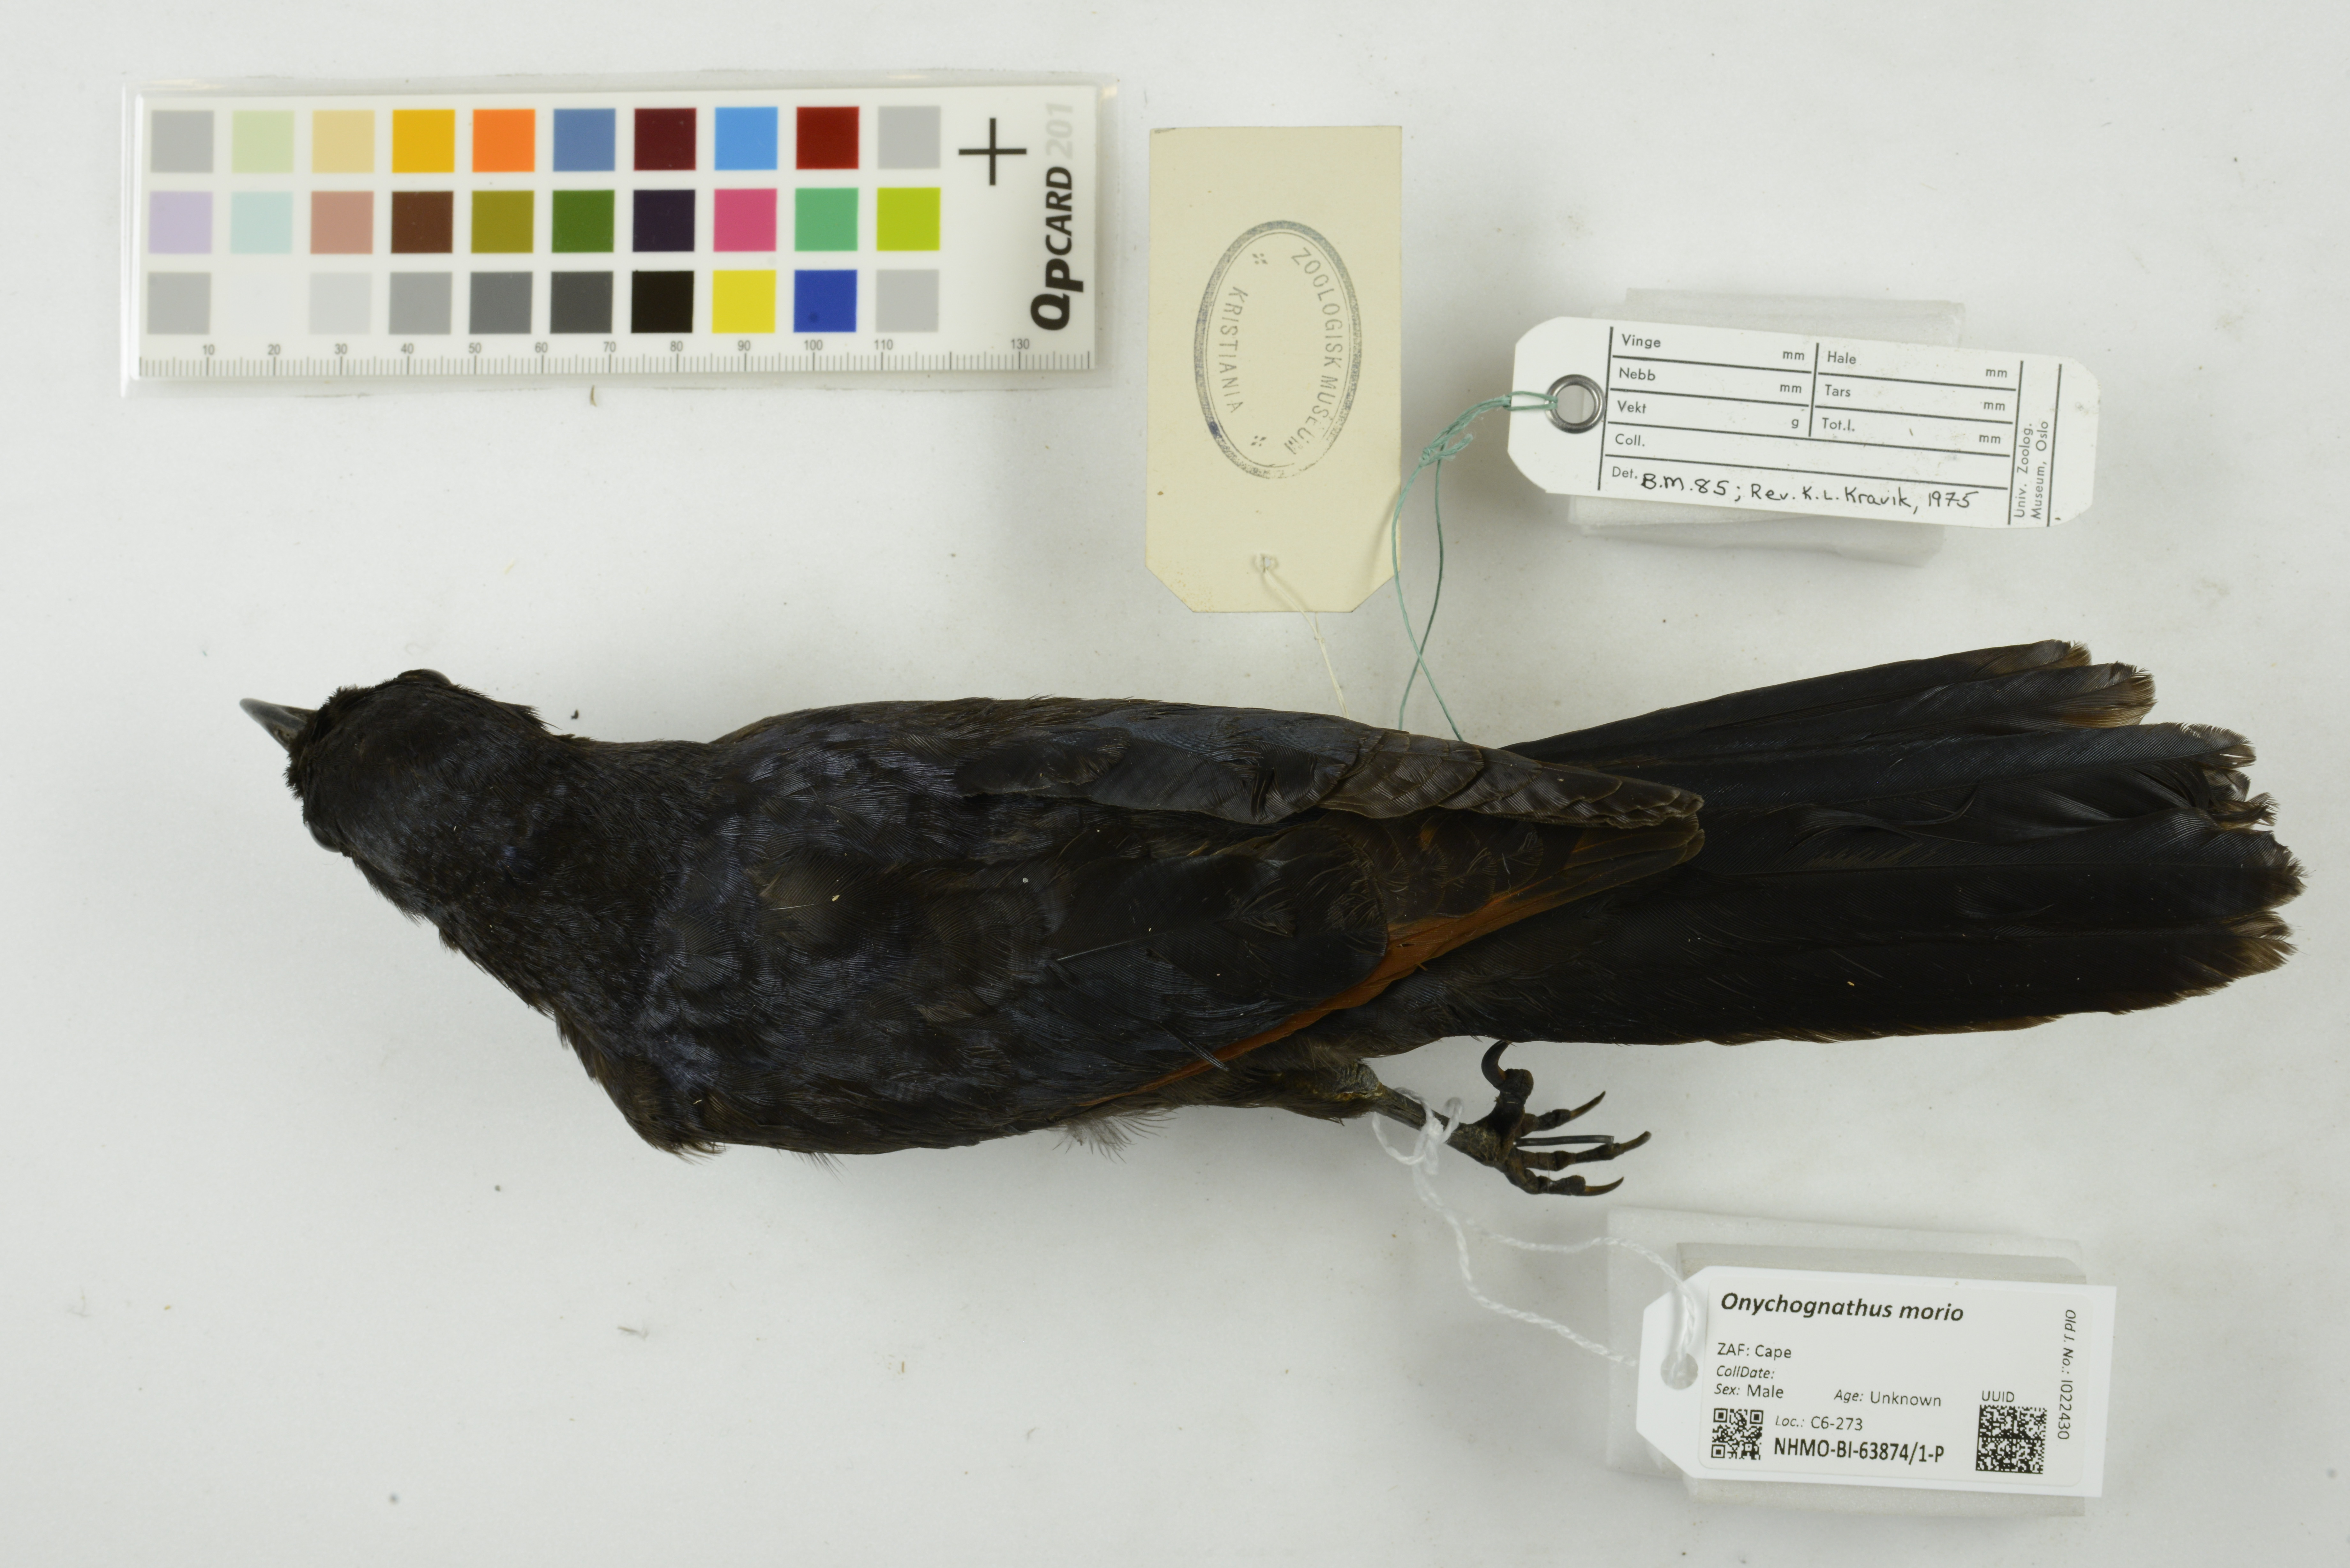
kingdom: Animalia
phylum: Chordata
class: Aves
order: Passeriformes
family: Sturnidae
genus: Onychognathus
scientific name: Onychognathus morio
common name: Red-winged starling
